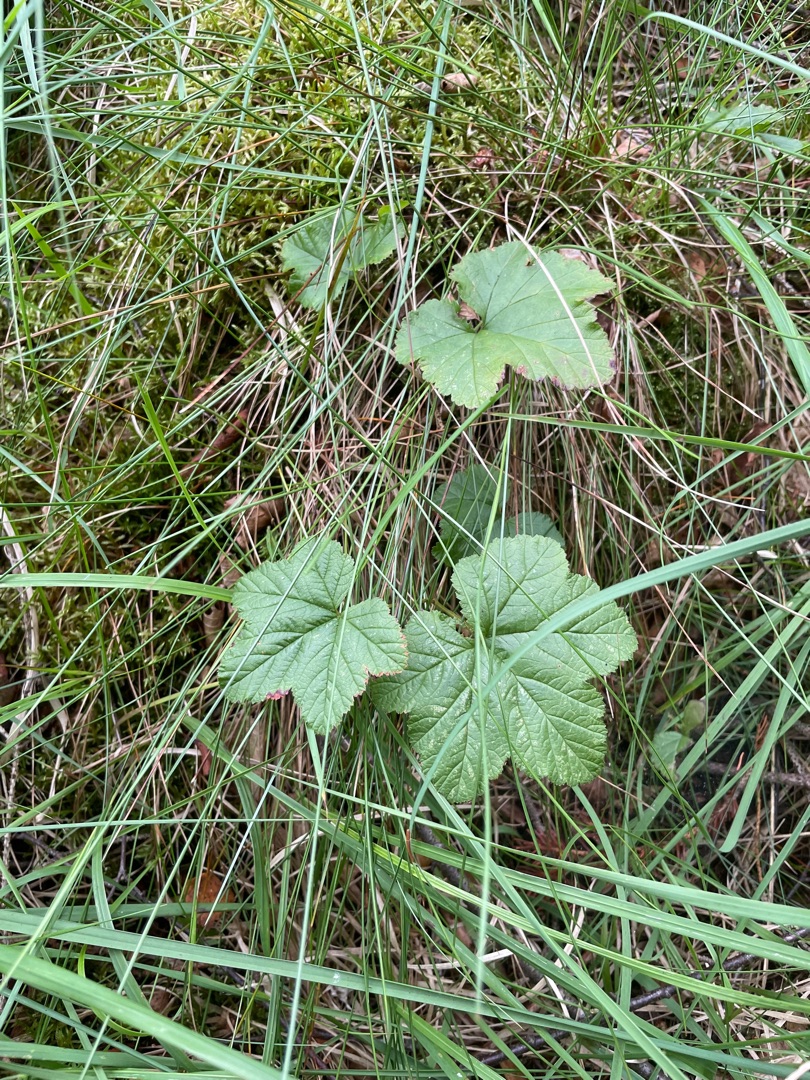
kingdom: Plantae
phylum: Tracheophyta
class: Magnoliopsida
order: Rosales
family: Rosaceae
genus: Rubus
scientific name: Rubus chamaemorus
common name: Multebær
